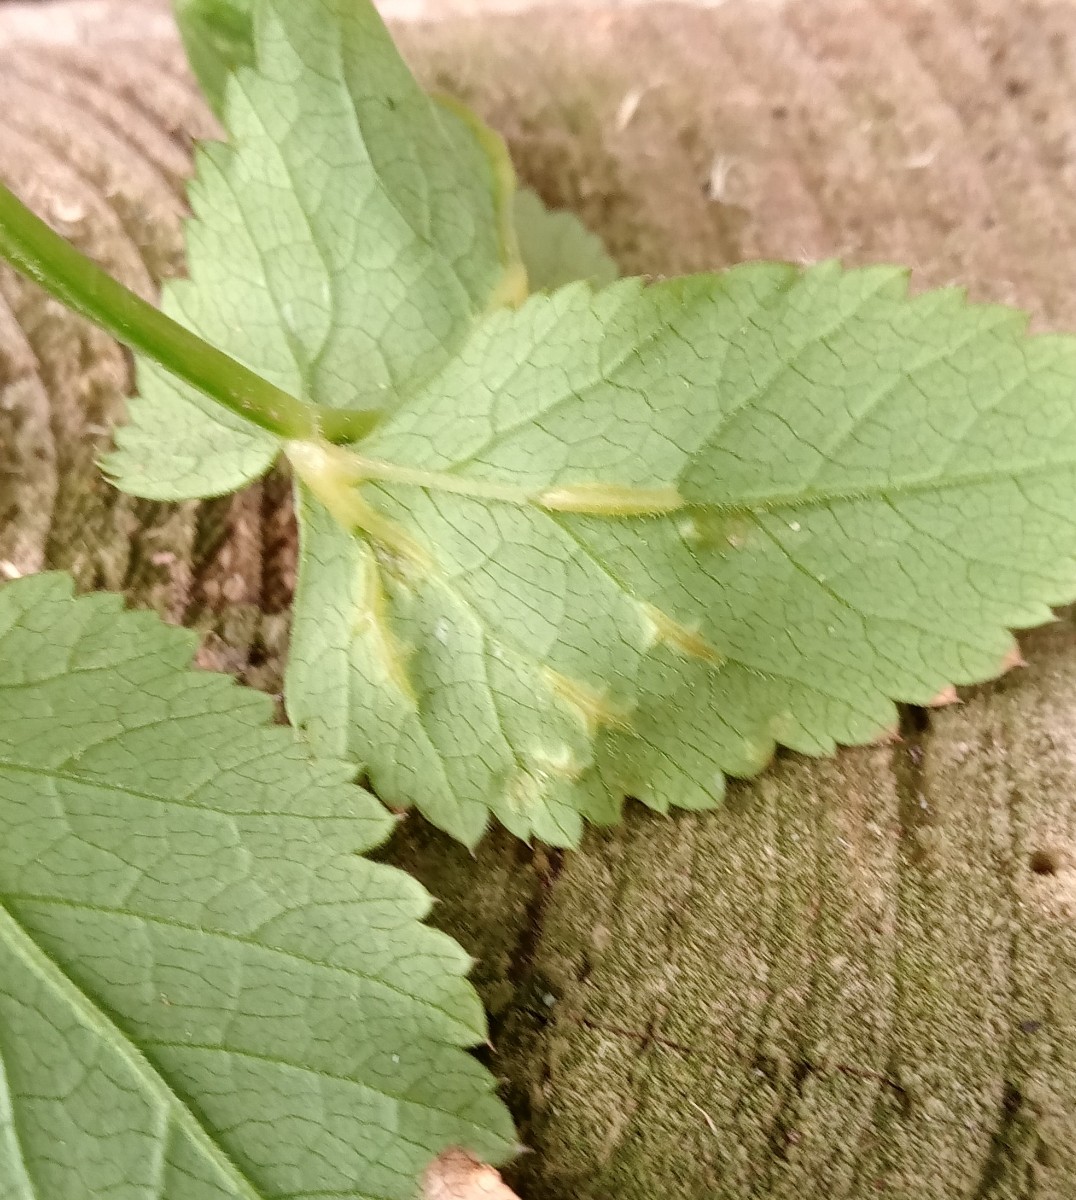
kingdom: Fungi
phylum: Ascomycota
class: Taphrinomycetes
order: Taphrinales
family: Taphrinaceae
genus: Protomyces
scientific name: Protomyces macrosporus
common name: skvalderkål-vablesæk
